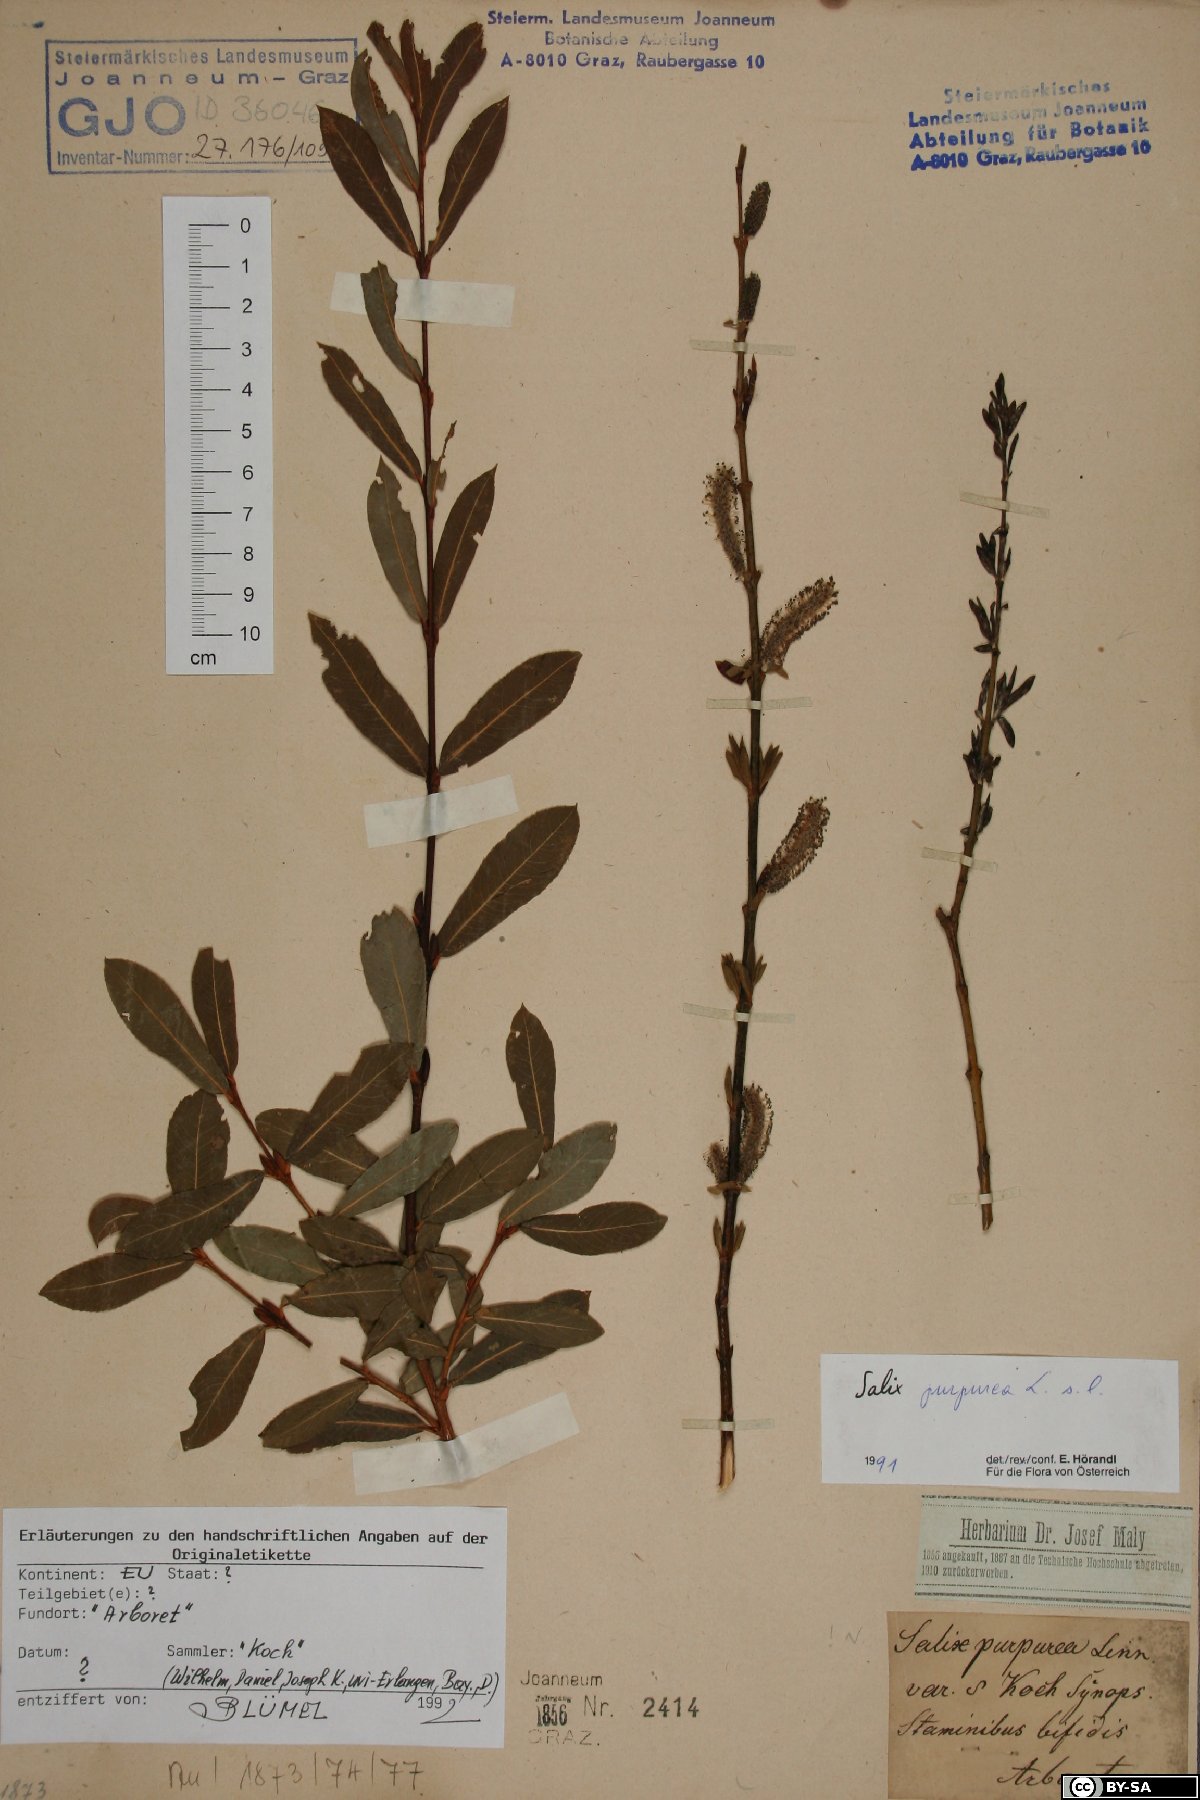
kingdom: Plantae
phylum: Tracheophyta
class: Magnoliopsida
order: Malpighiales
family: Salicaceae
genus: Salix
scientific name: Salix purpurea
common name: Purple willow
